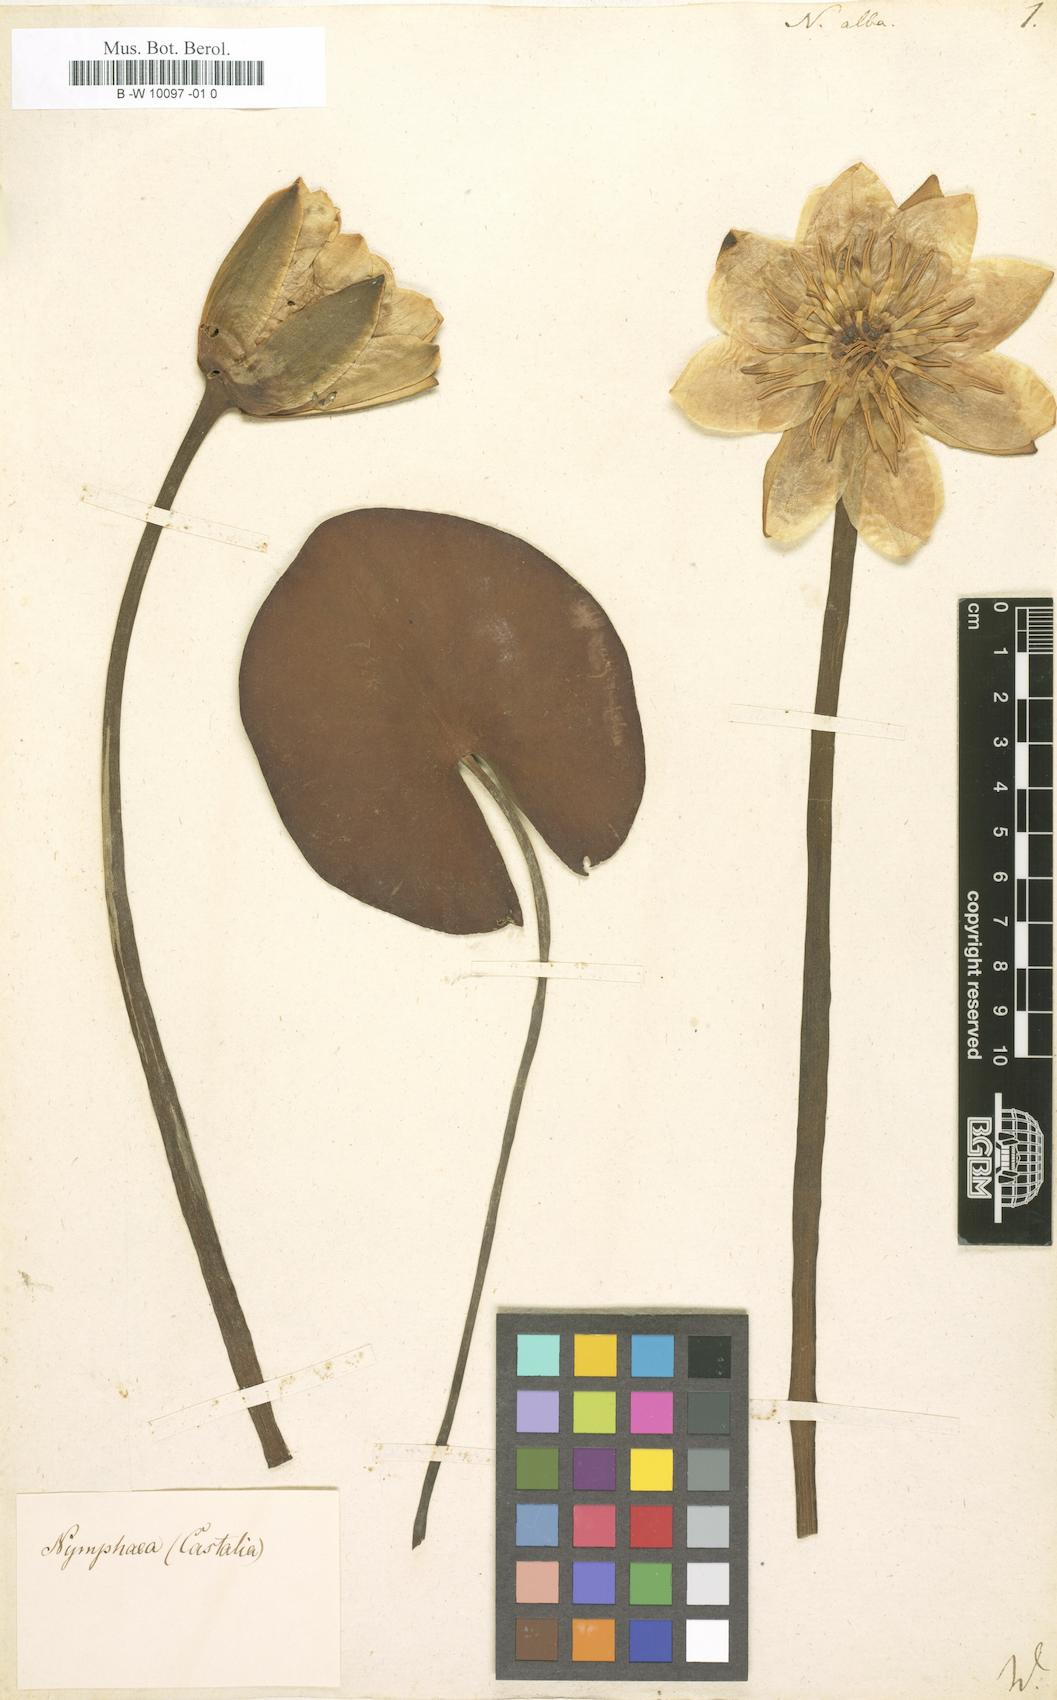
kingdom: Plantae
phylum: Tracheophyta
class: Magnoliopsida
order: Nymphaeales
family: Nymphaeaceae
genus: Nymphaea
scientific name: Nymphaea alba
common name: White water-lily
